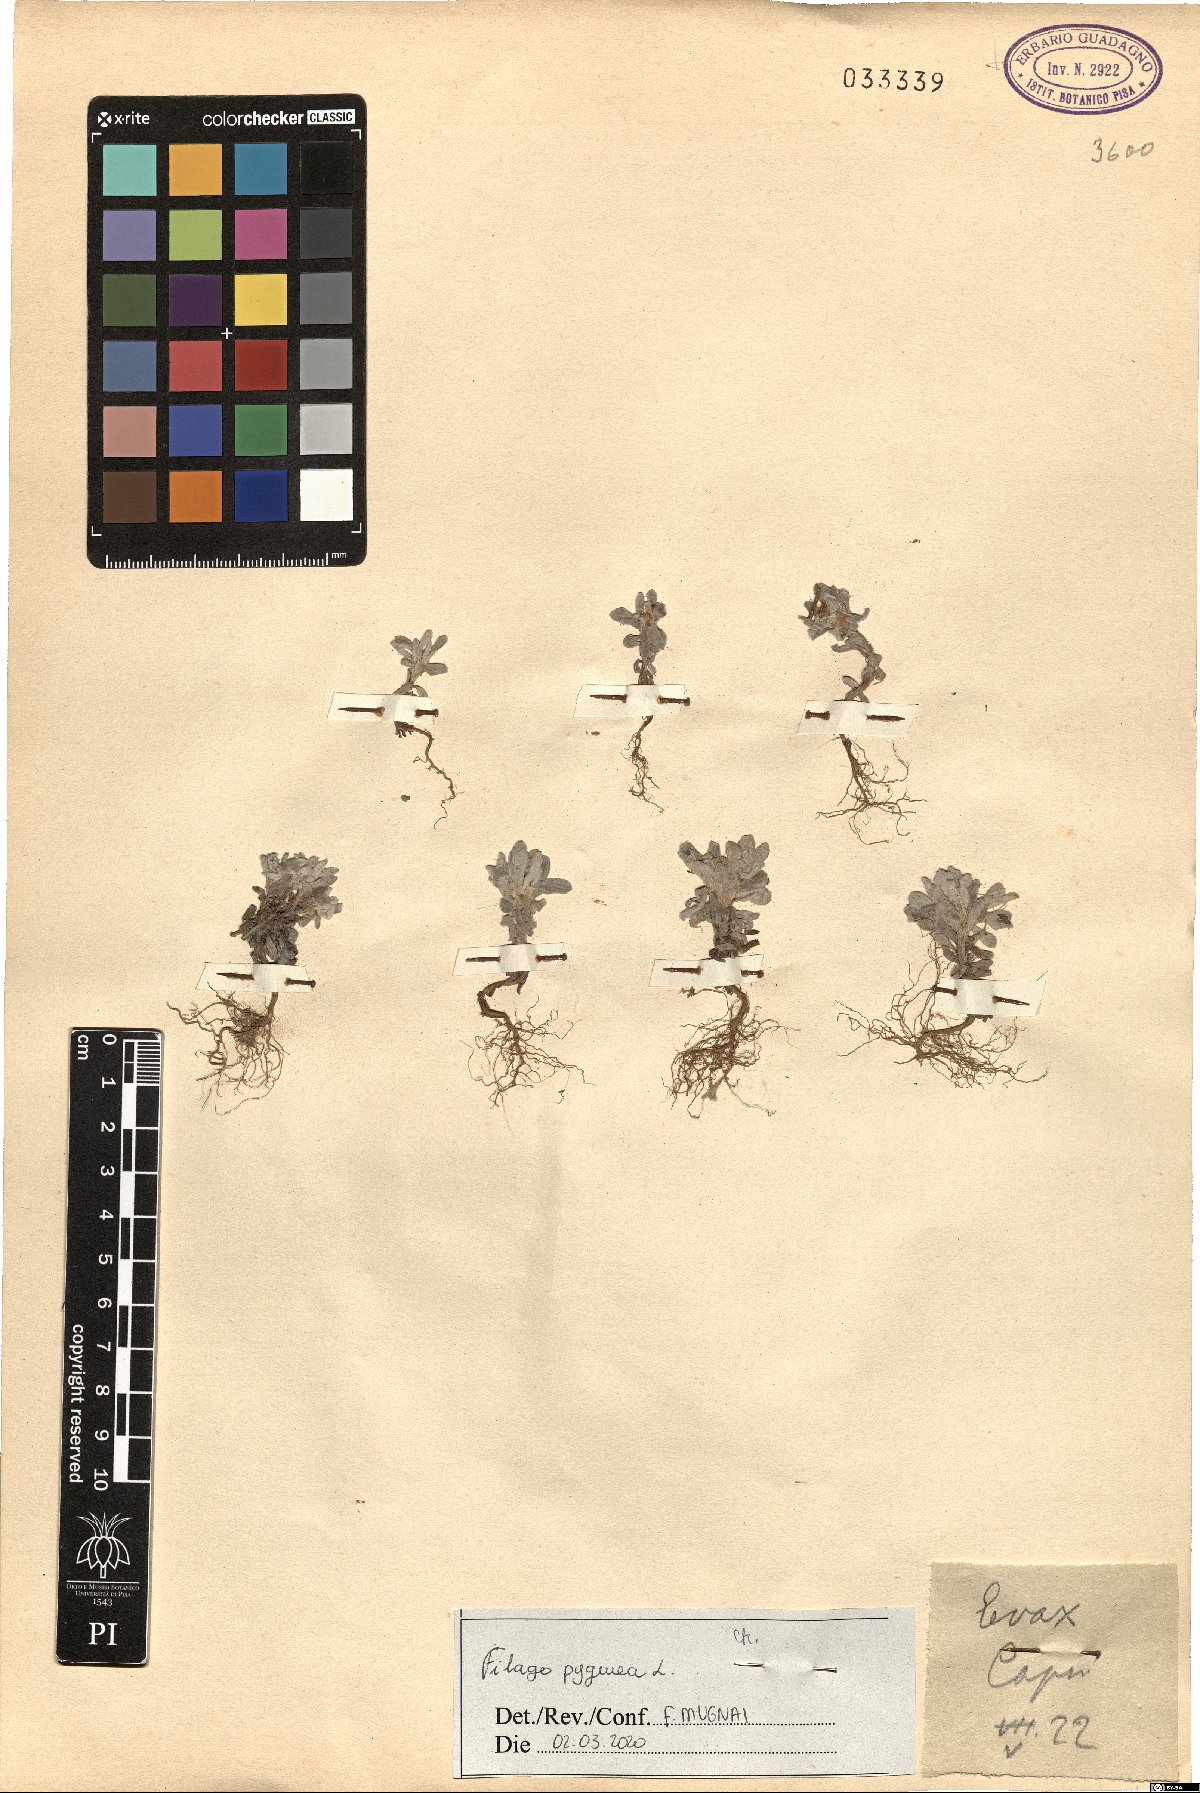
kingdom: Plantae
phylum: Tracheophyta
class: Magnoliopsida
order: Asterales
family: Asteraceae
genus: Filago
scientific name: Filago pygmaea
